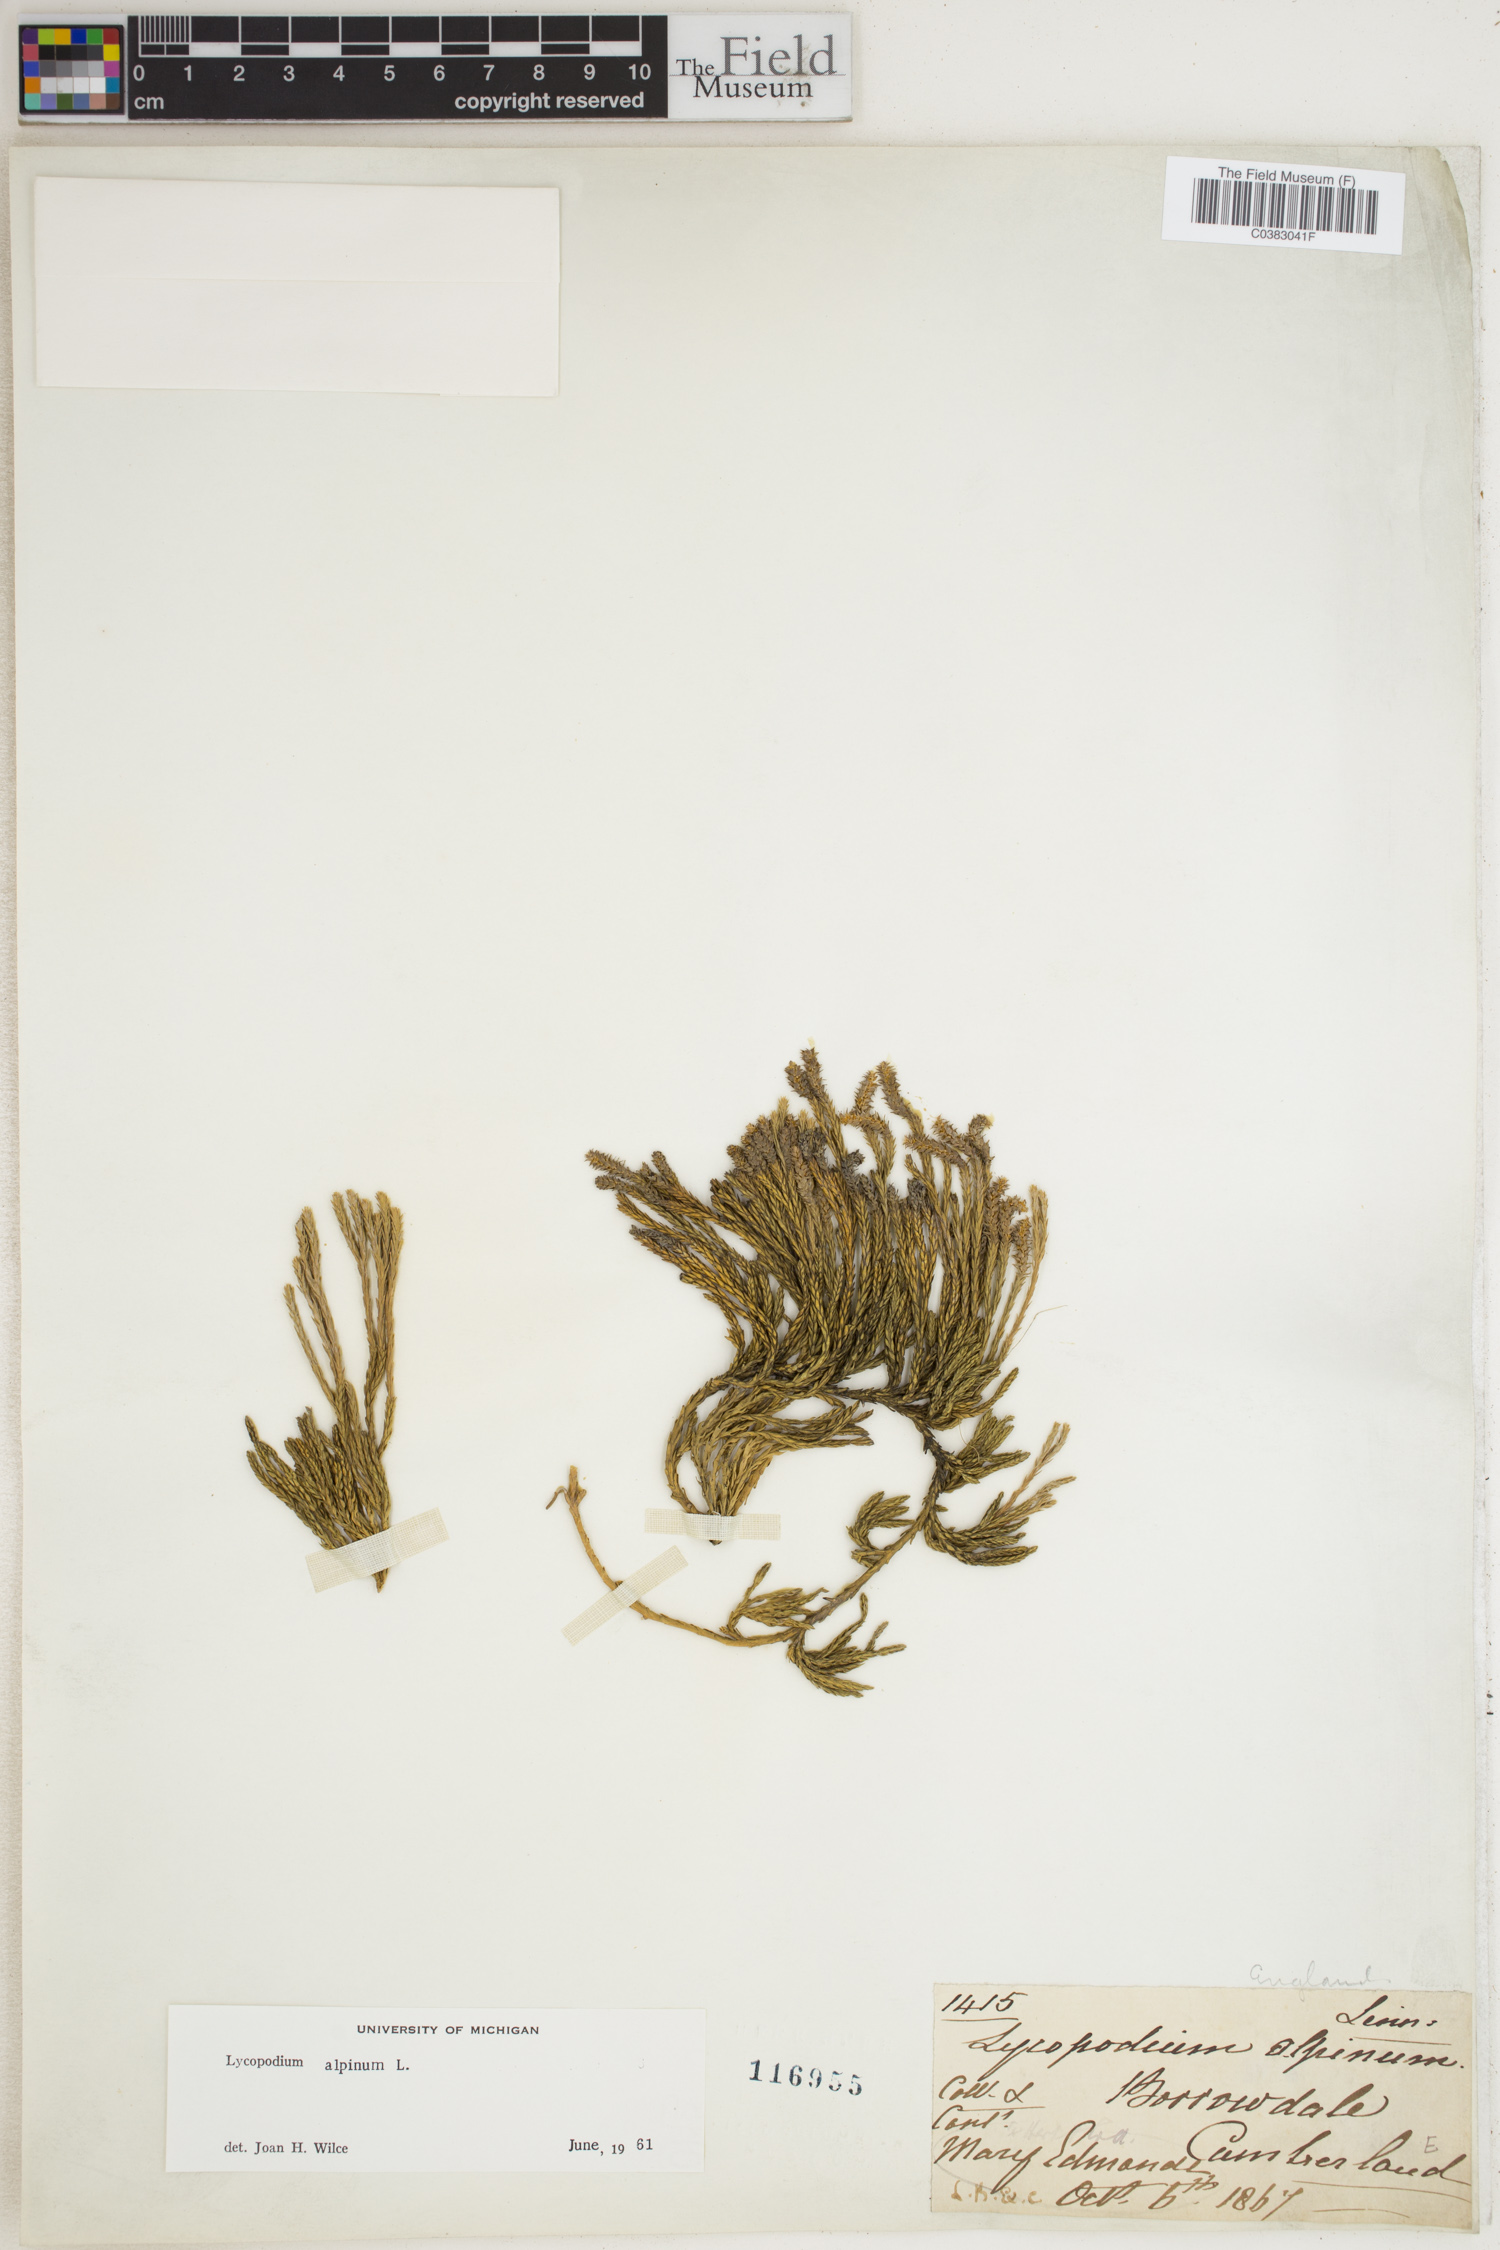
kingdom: Plantae
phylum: Tracheophyta
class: Lycopodiopsida
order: Lycopodiales
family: Lycopodiaceae
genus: Diphasiastrum
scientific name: Diphasiastrum alpinum
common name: Alpine clubmoss
